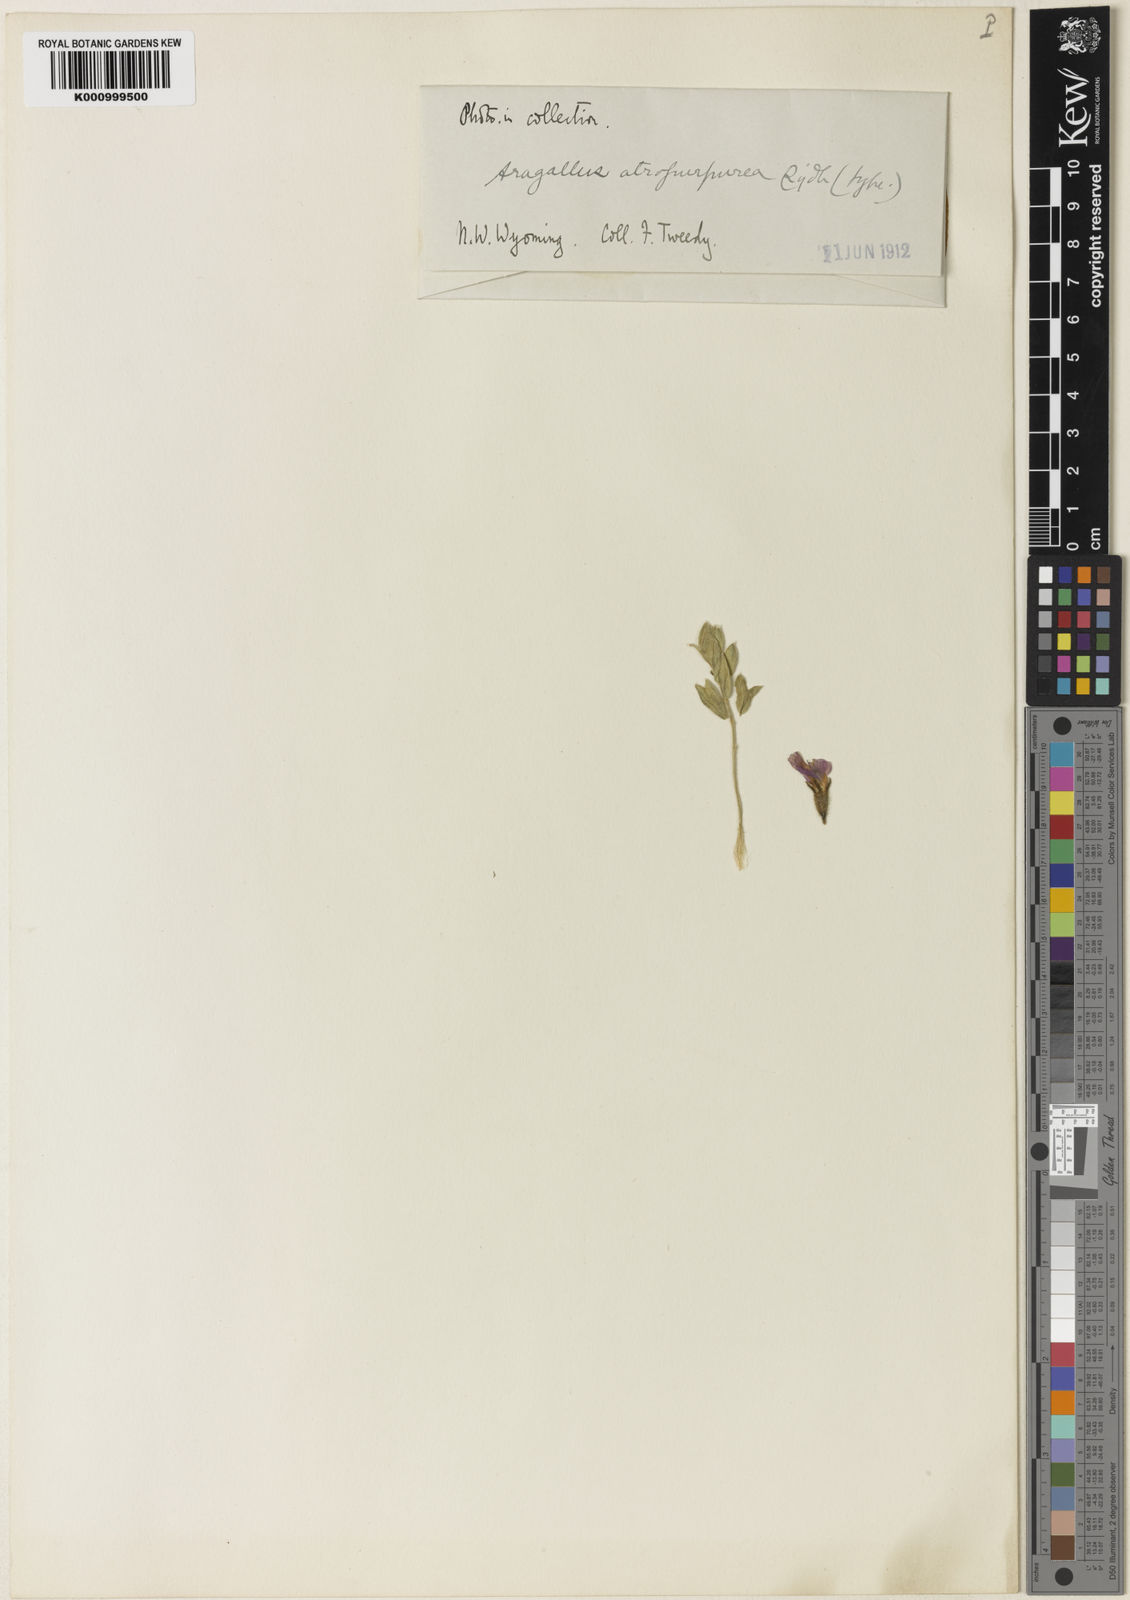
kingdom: Plantae
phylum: Tracheophyta
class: Magnoliopsida
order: Fabales
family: Fabaceae
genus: Astragalus
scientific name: Astragalus
